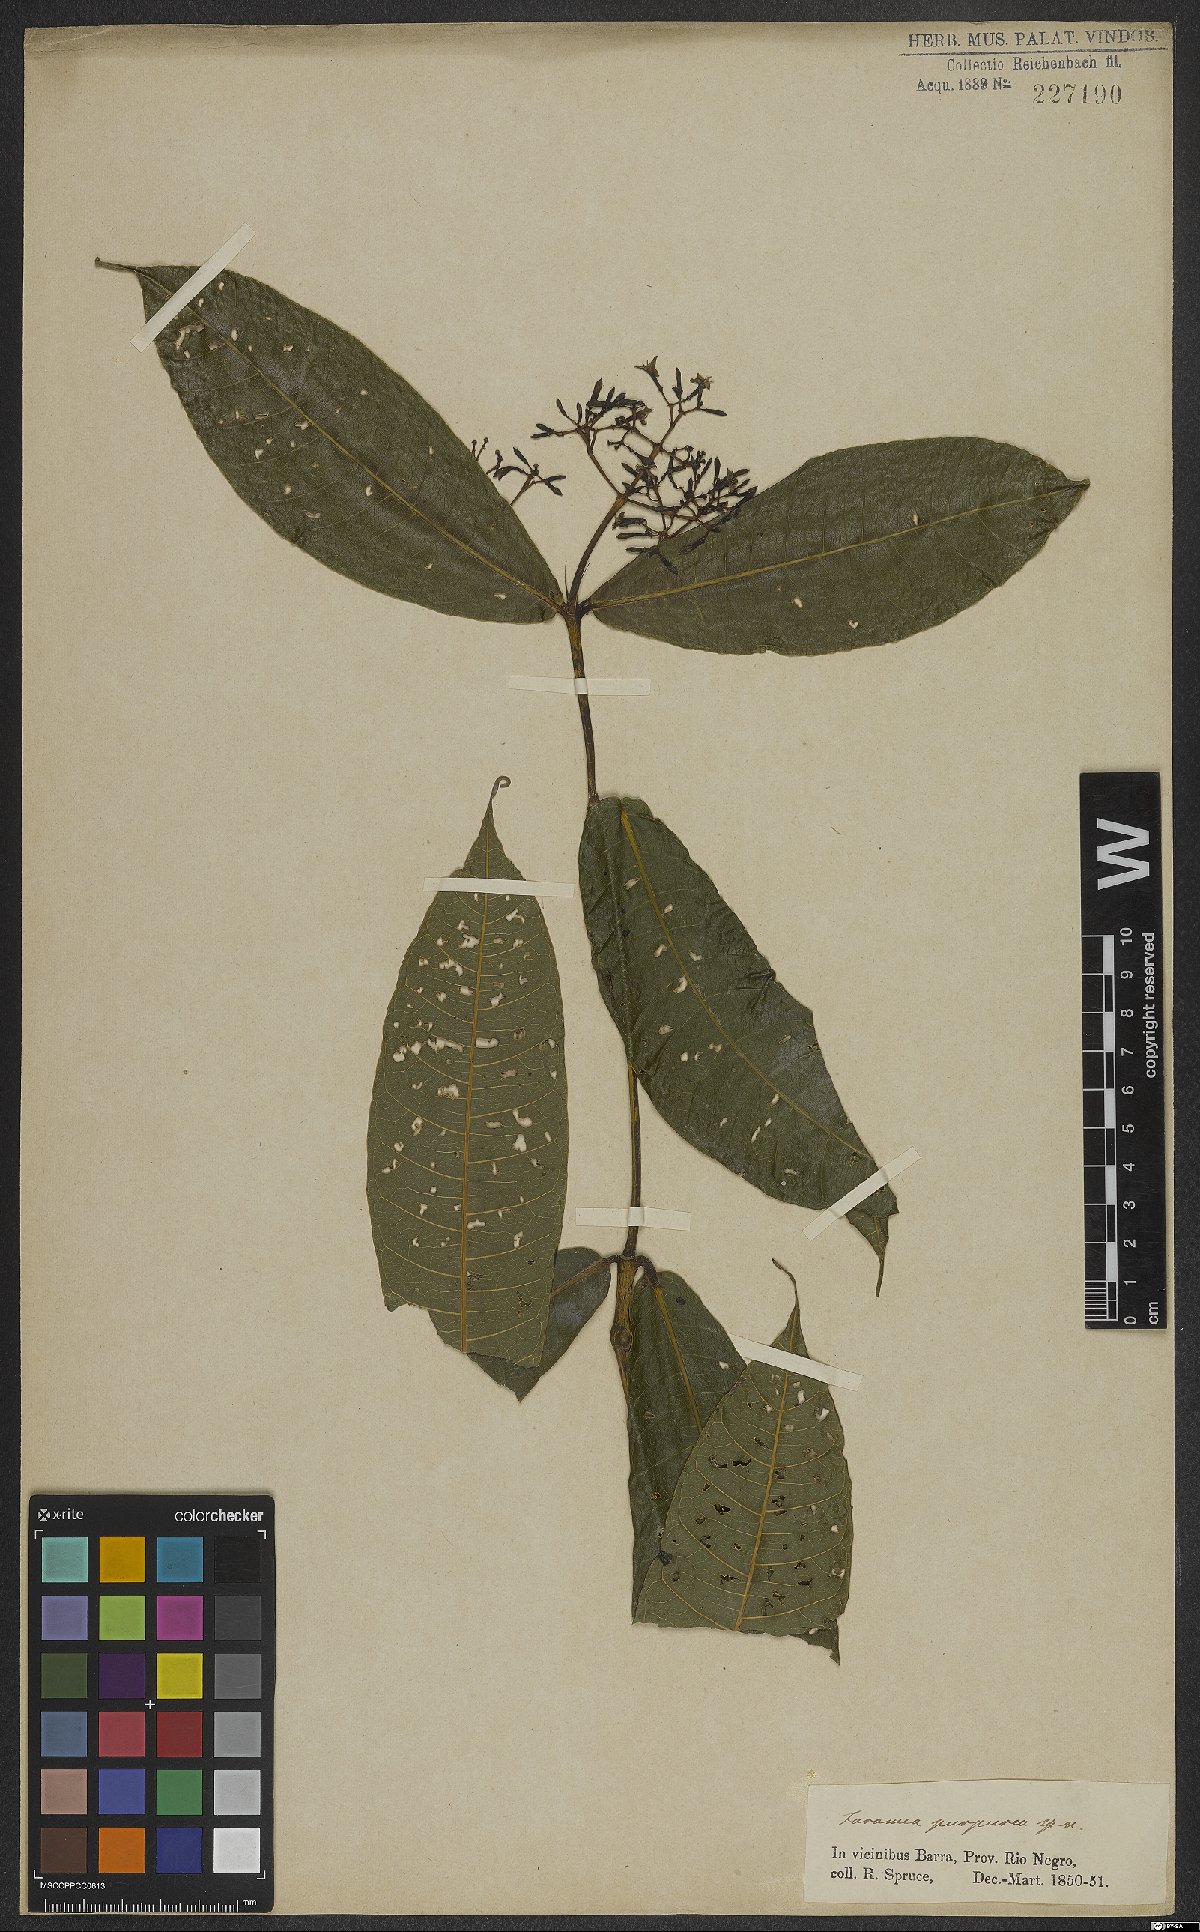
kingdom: Plantae
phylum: Tracheophyta
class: Magnoliopsida
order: Gentianales
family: Rubiaceae
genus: Faramea
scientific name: Faramea sessilifolia
